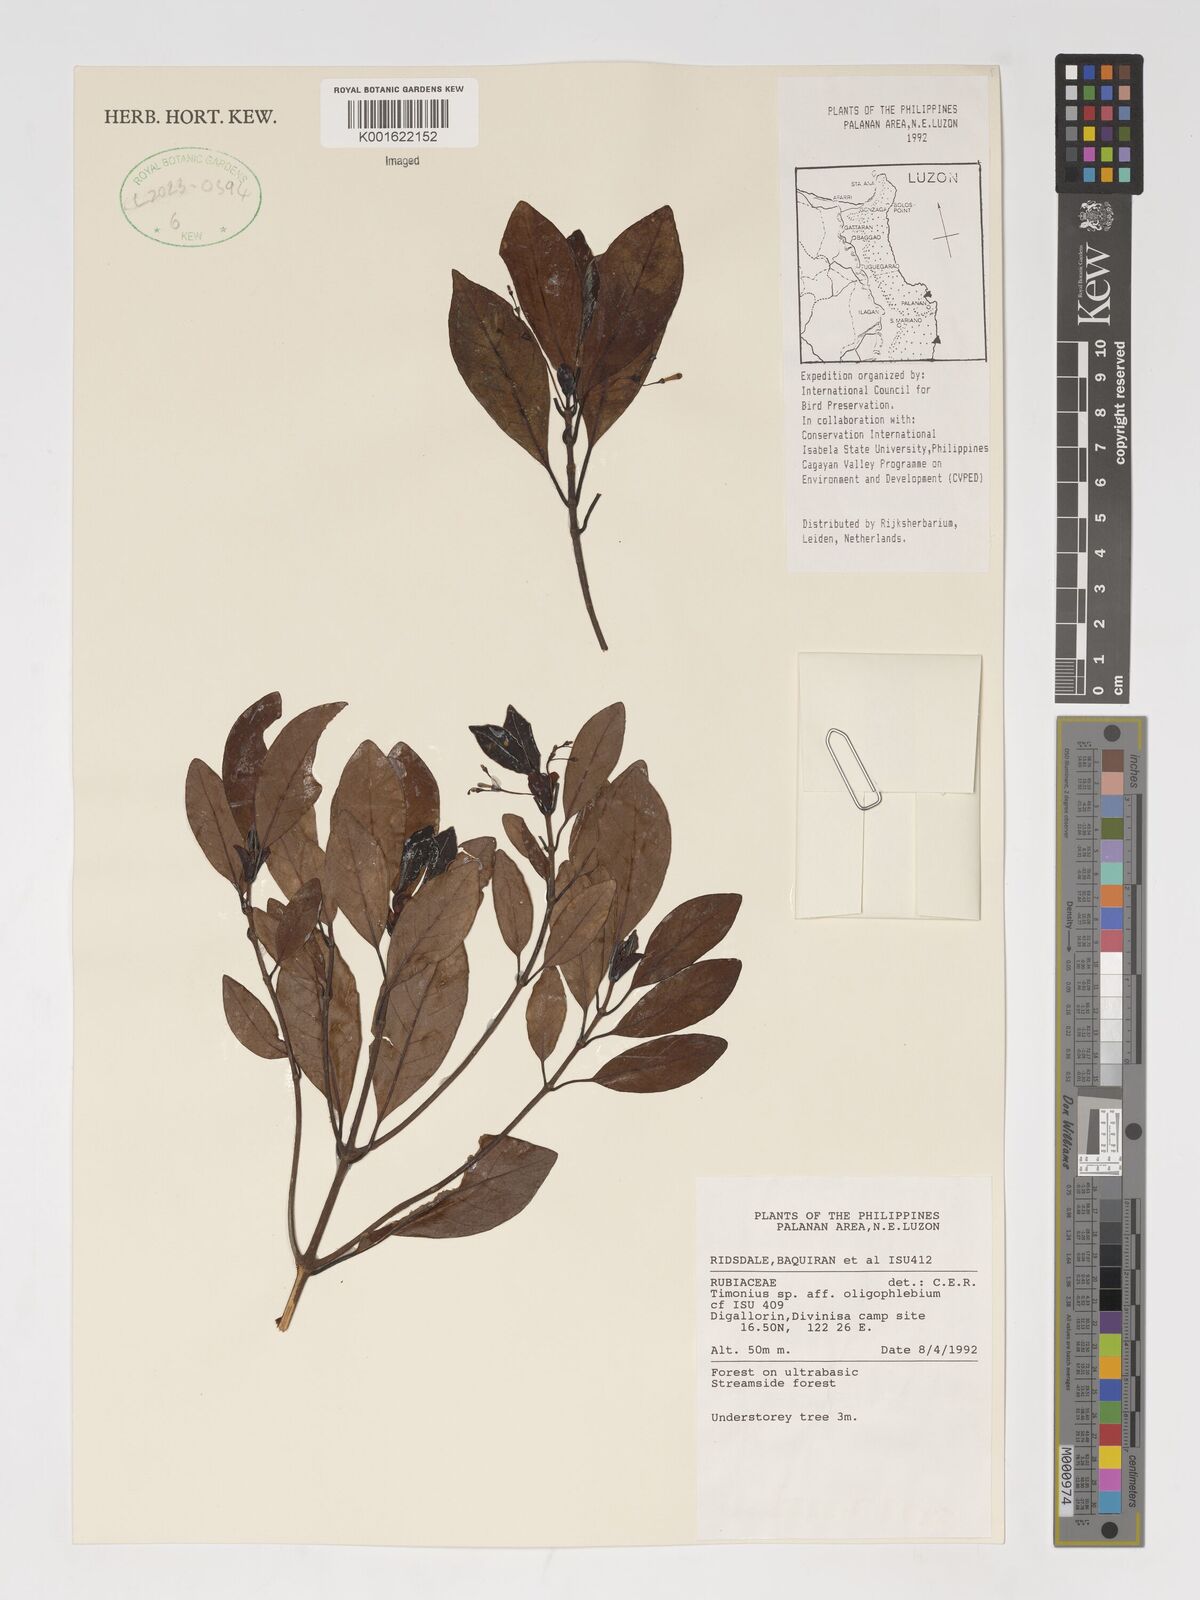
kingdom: Plantae
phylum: Tracheophyta
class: Magnoliopsida
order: Gentianales
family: Rubiaceae
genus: Timonius
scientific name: Timonius
